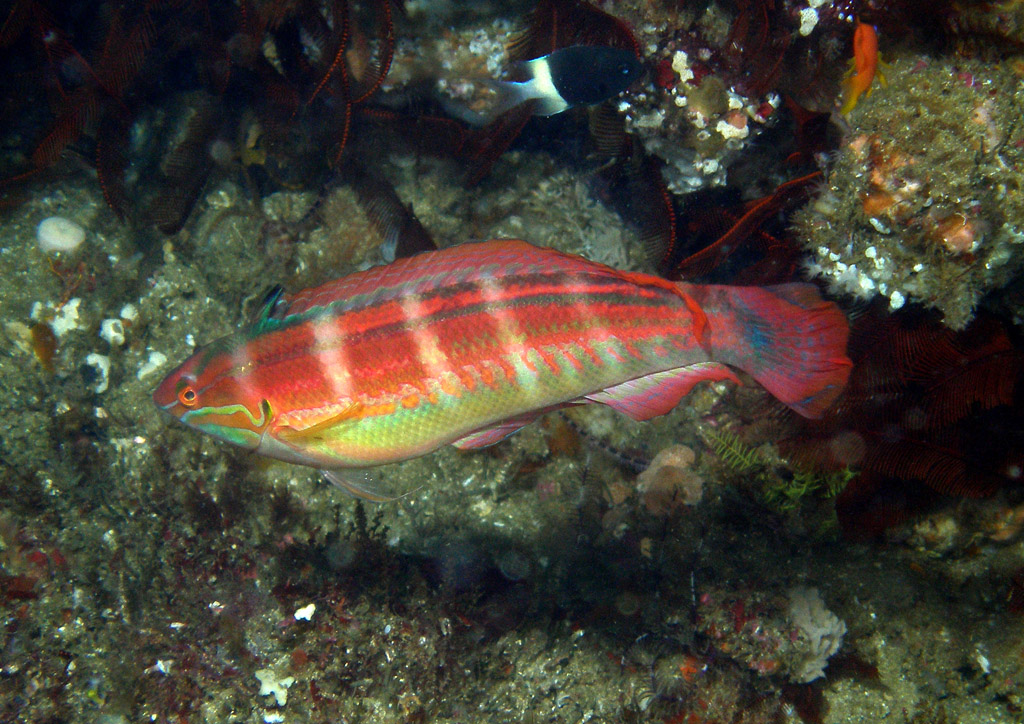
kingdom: Animalia
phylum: Chordata
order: Perciformes
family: Labridae
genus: Coris
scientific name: Coris caudimacula
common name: Spottail coris
